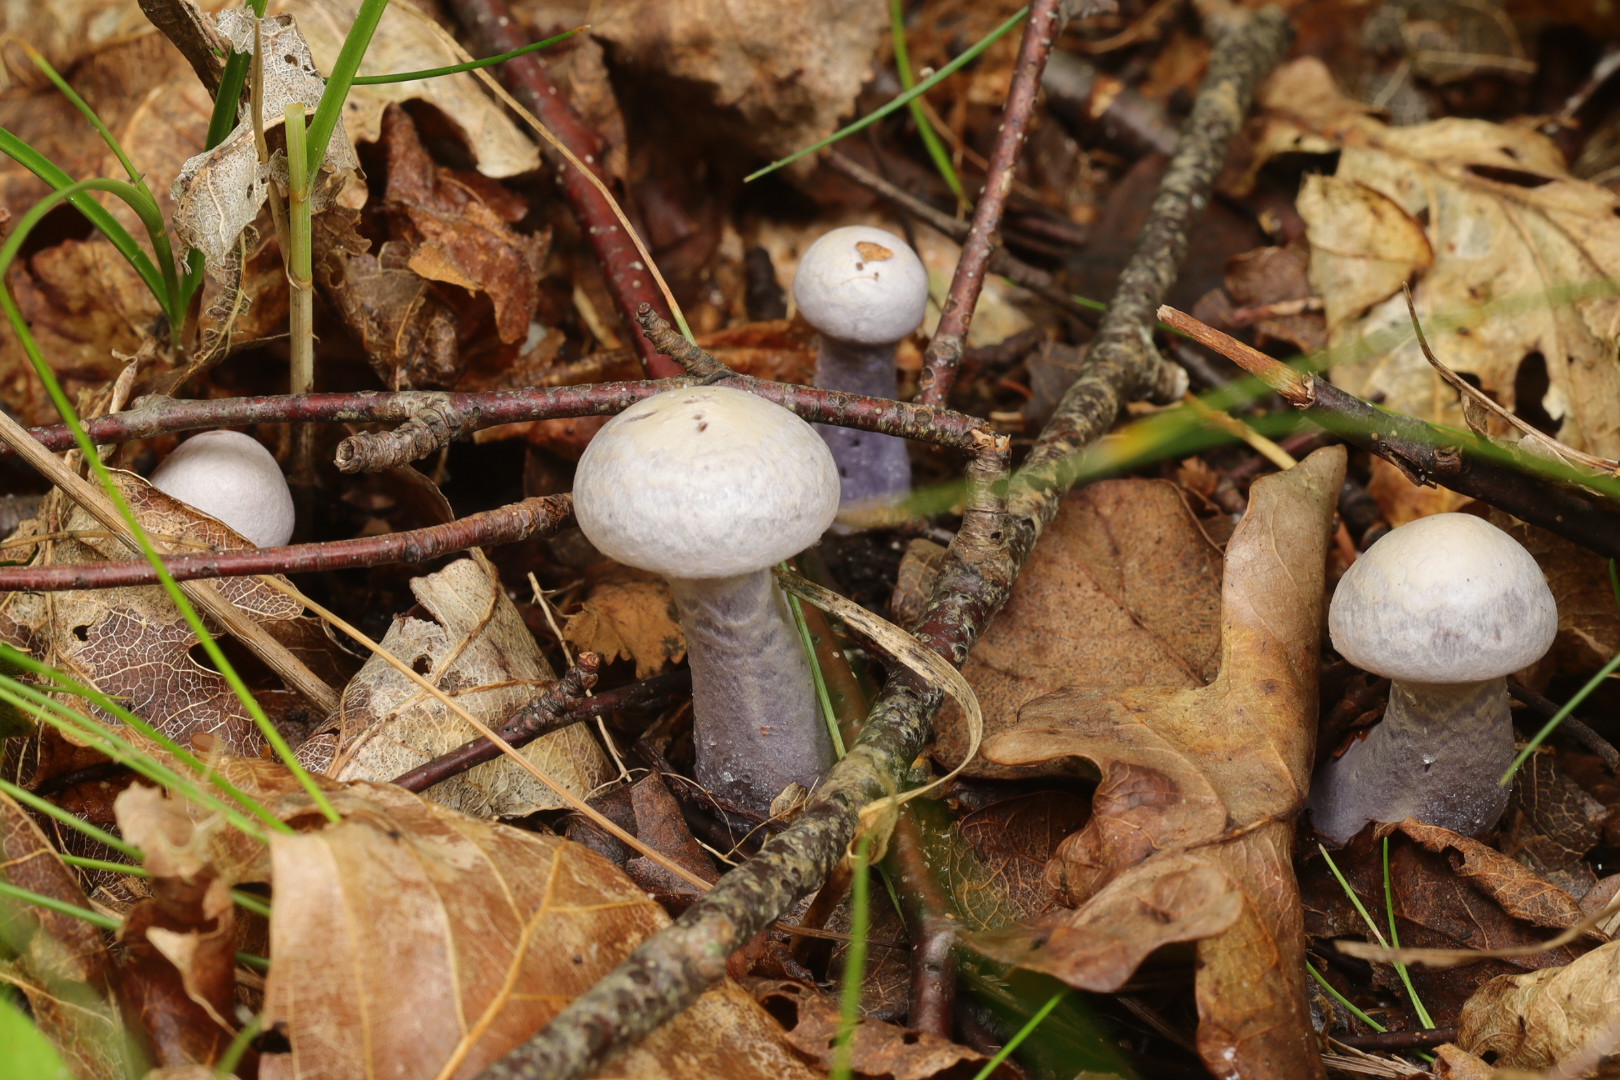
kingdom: Fungi
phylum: Basidiomycota
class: Agaricomycetes
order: Agaricales
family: Cortinariaceae
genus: Cortinarius
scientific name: Cortinarius
